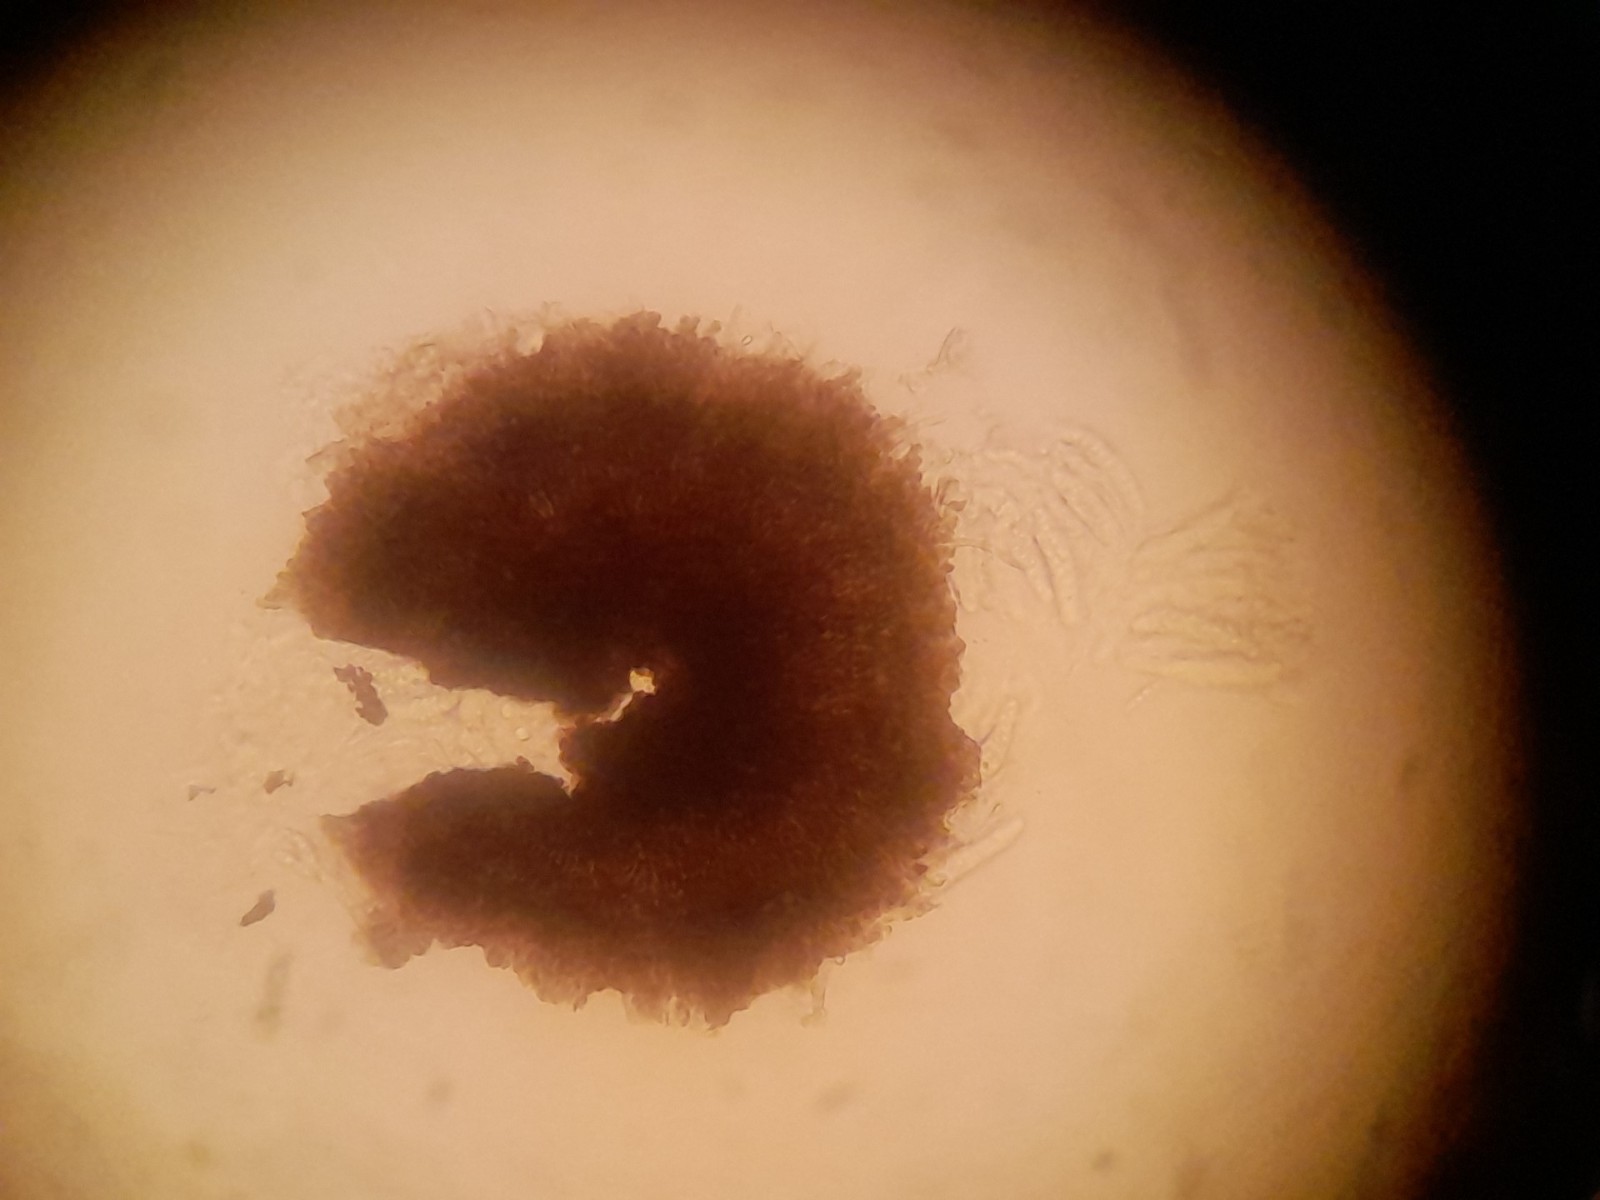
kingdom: Fungi
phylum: Ascomycota
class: Dothideomycetes
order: Microthyriales
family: Micropeltidaceae
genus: Stomiopeltis
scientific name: Stomiopeltis cupressicola
